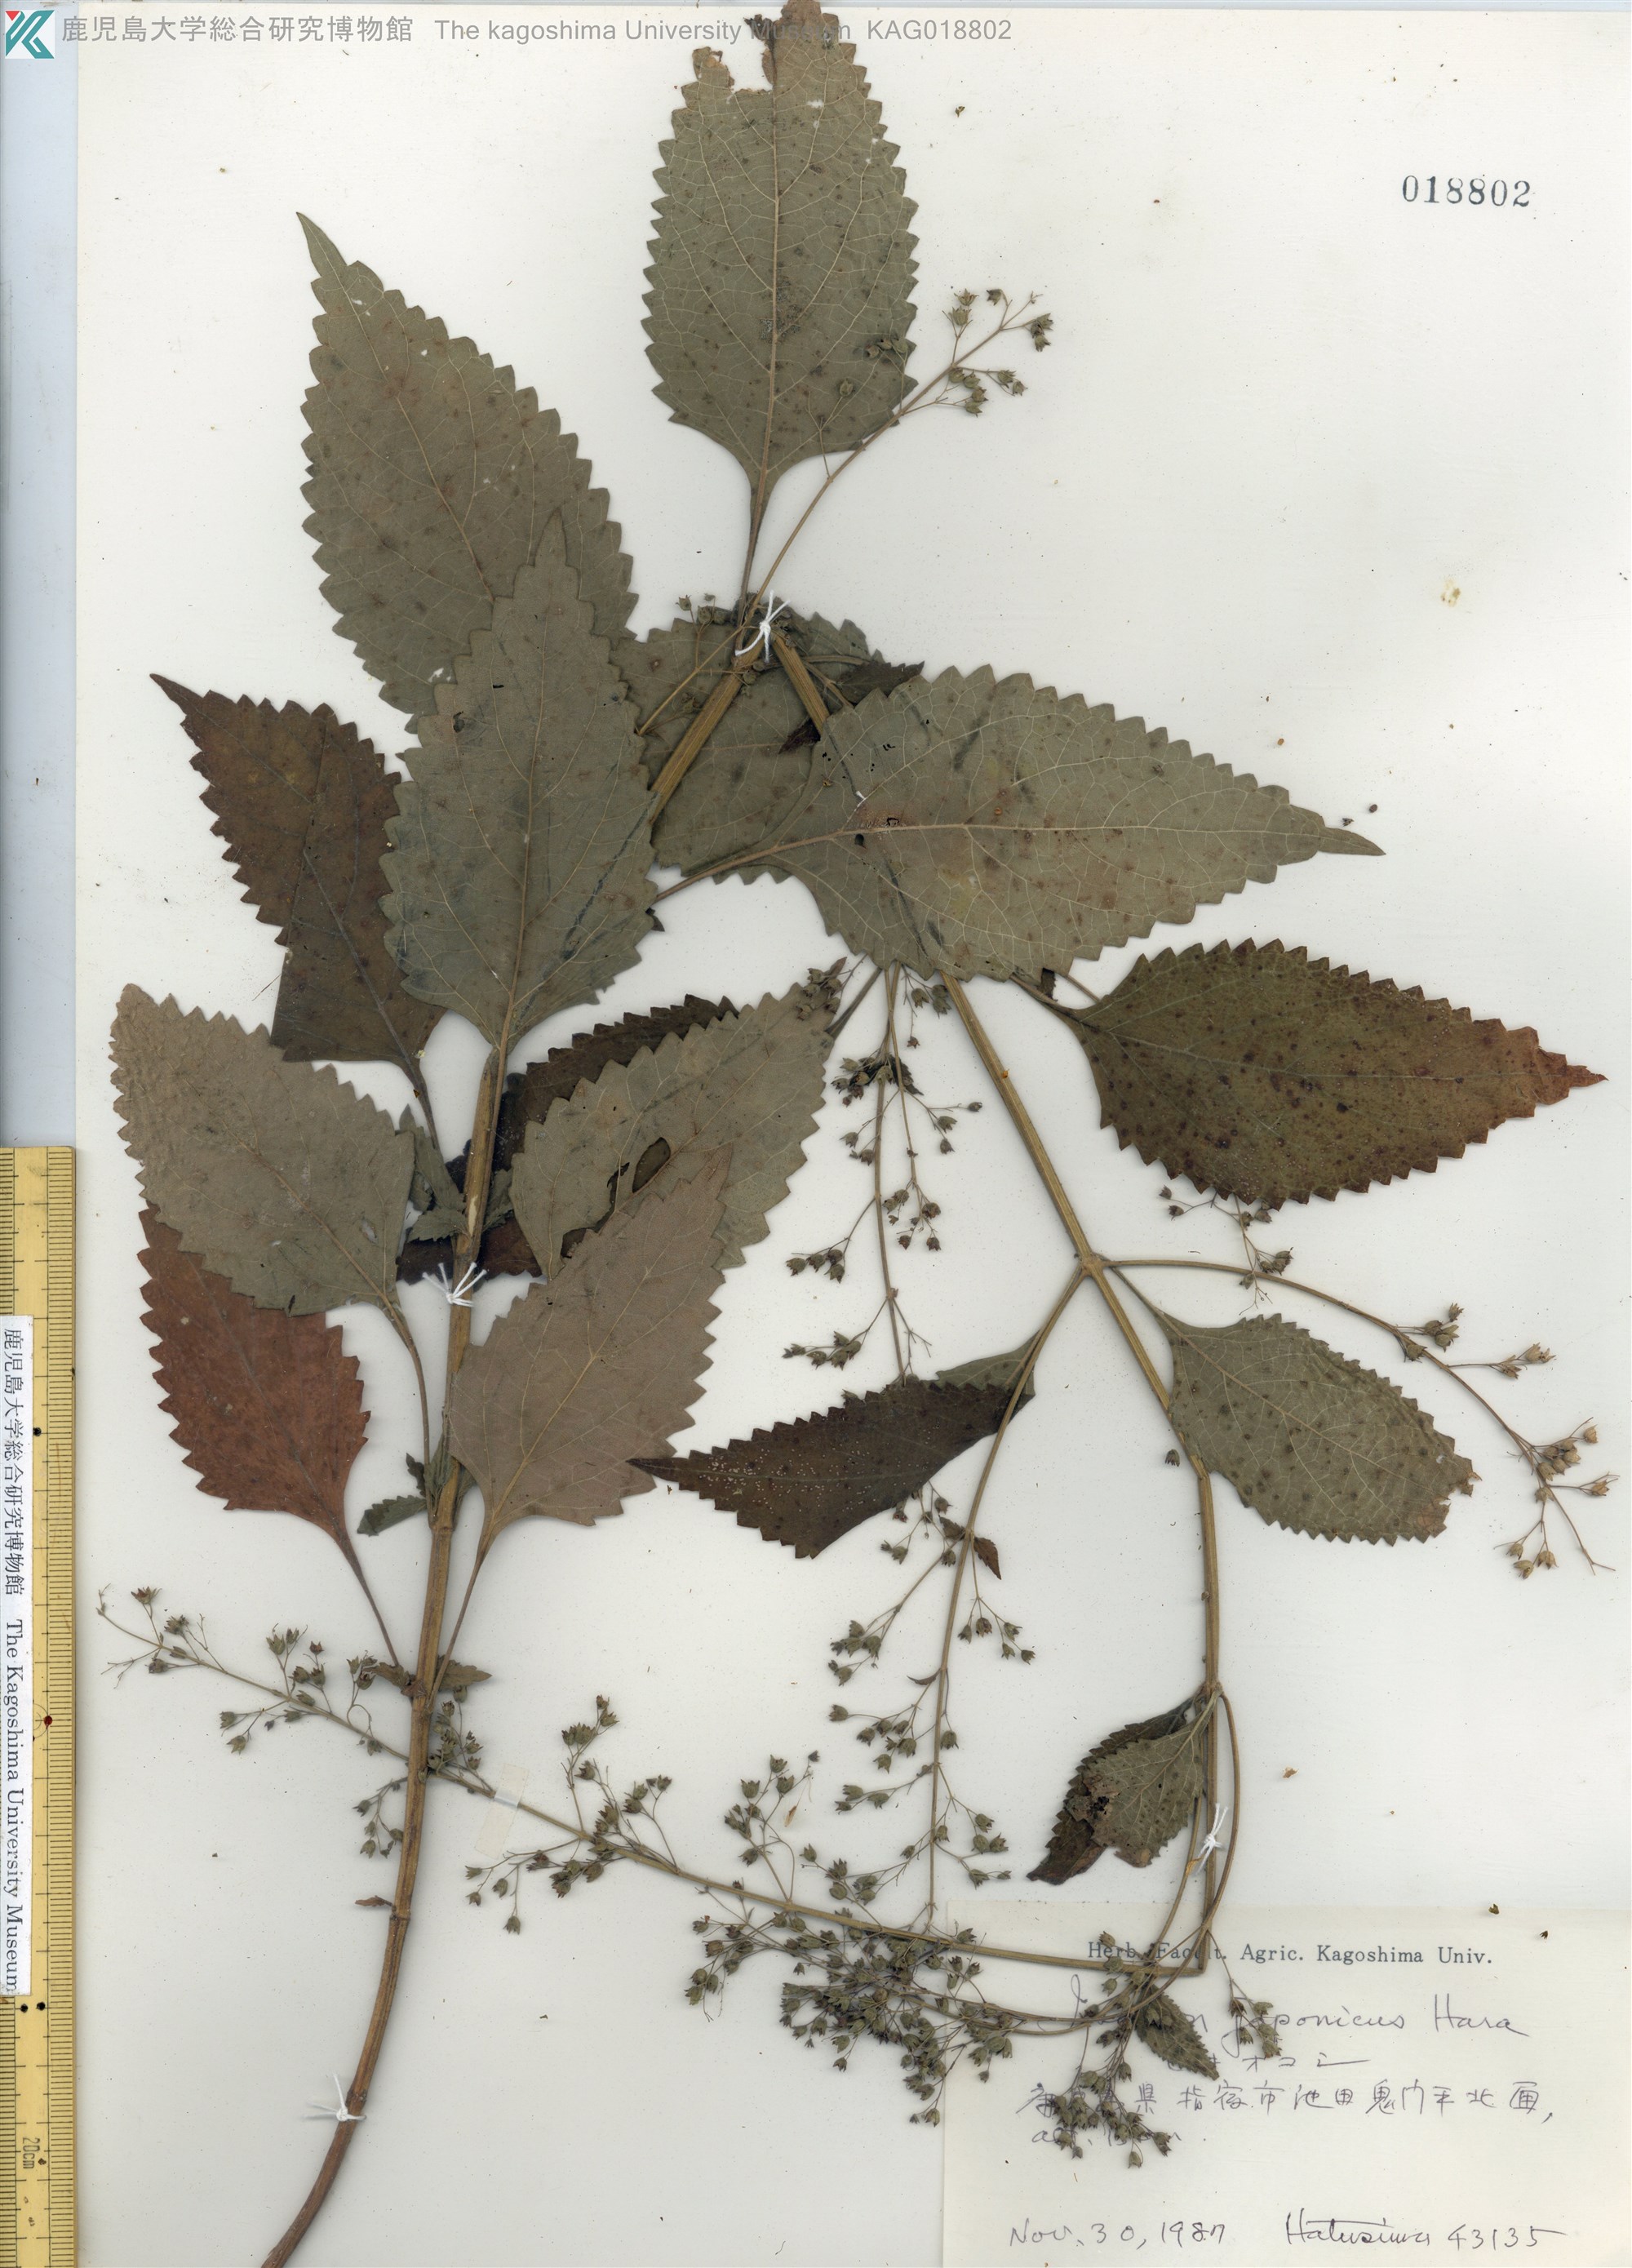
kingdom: Plantae
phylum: Tracheophyta
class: Magnoliopsida
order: Lamiales
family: Lamiaceae
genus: Isodon
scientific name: Isodon japonicus
